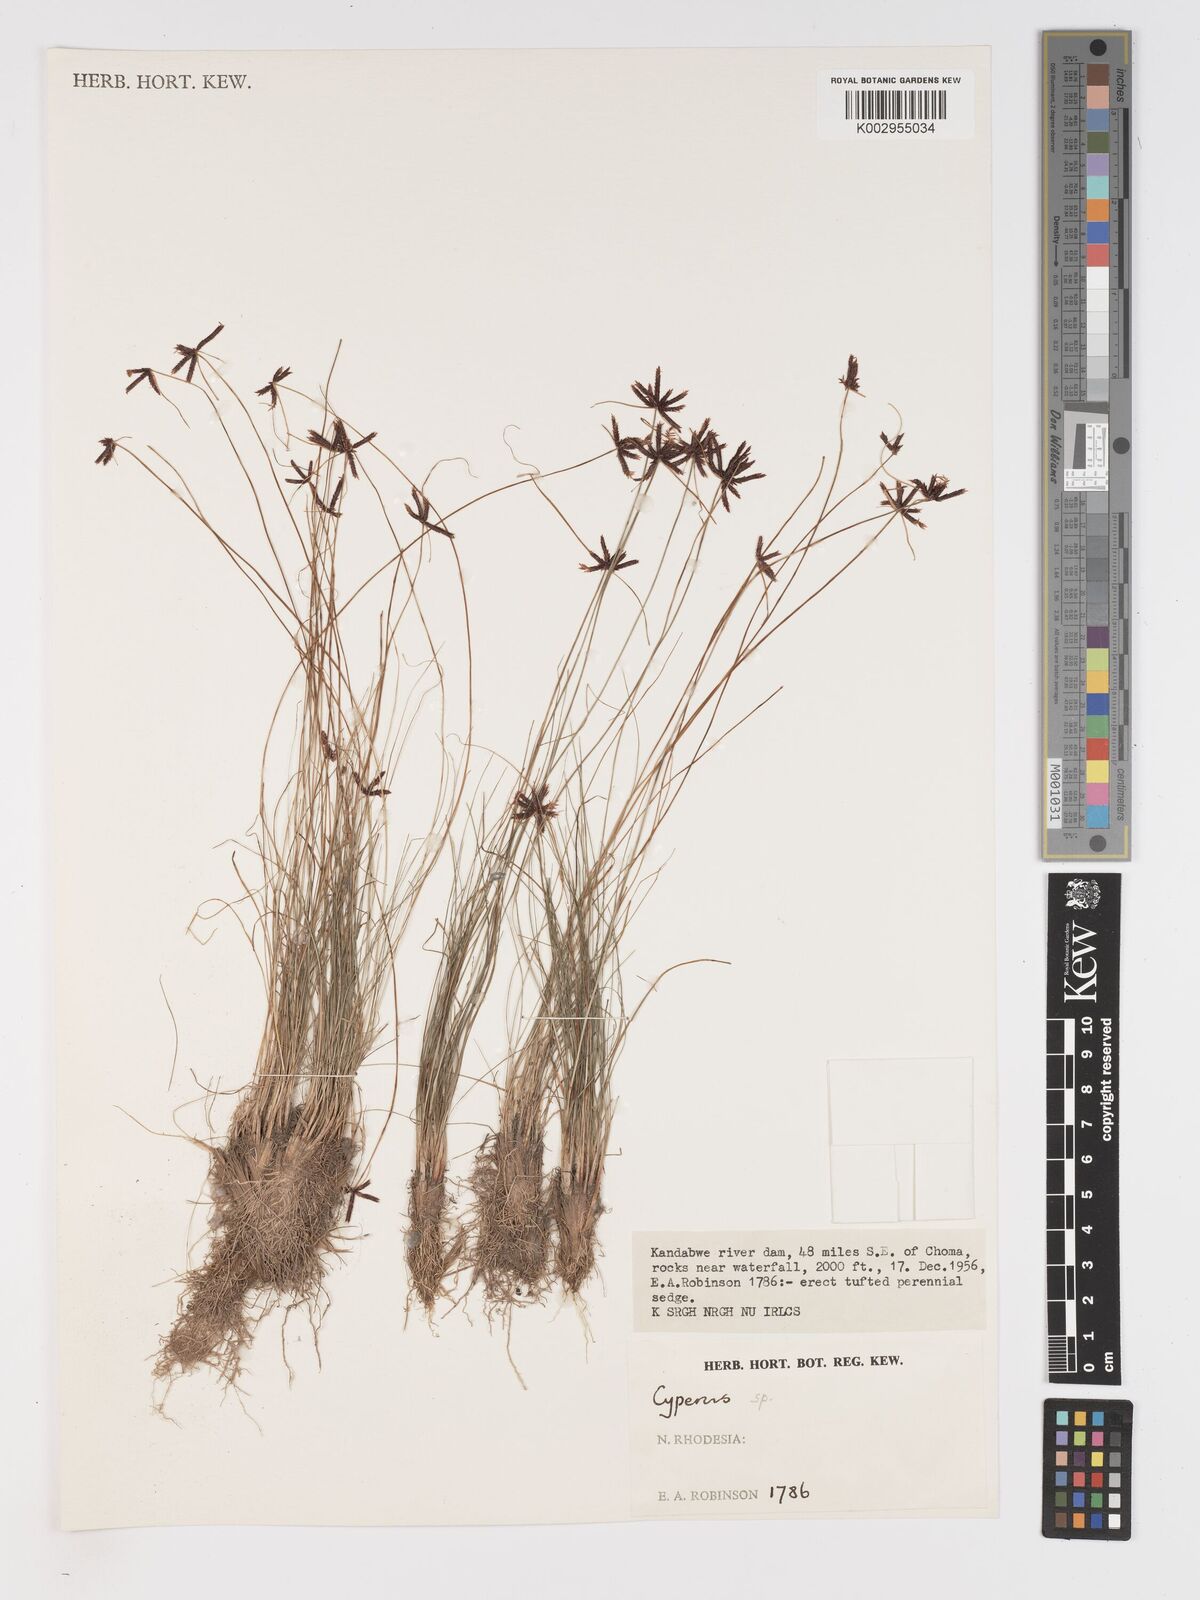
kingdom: Plantae
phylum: Tracheophyta
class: Liliopsida
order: Poales
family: Cyperaceae
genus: Cyperus
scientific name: Cyperus schimperianus
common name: Schimper flatsedge
